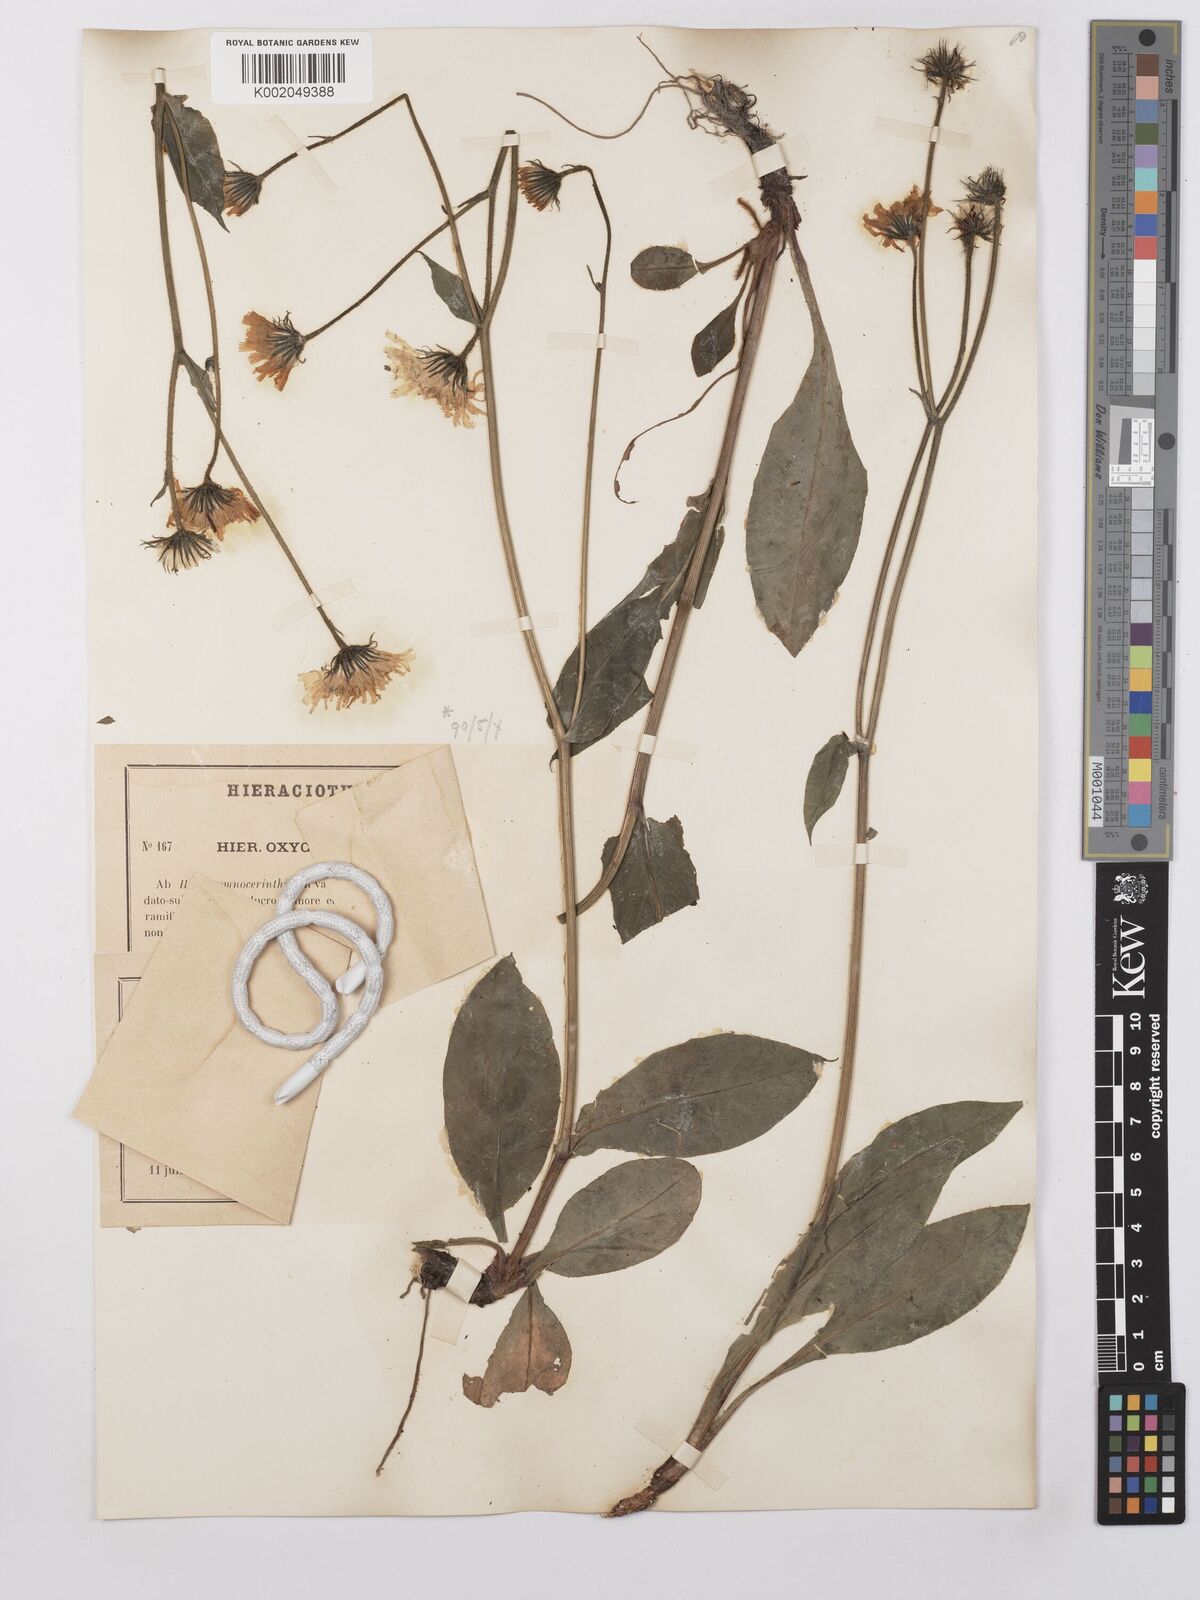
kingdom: Plantae
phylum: Tracheophyta
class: Magnoliopsida
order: Asterales
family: Asteraceae
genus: Hieracium
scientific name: Hieracium cerinthoides
